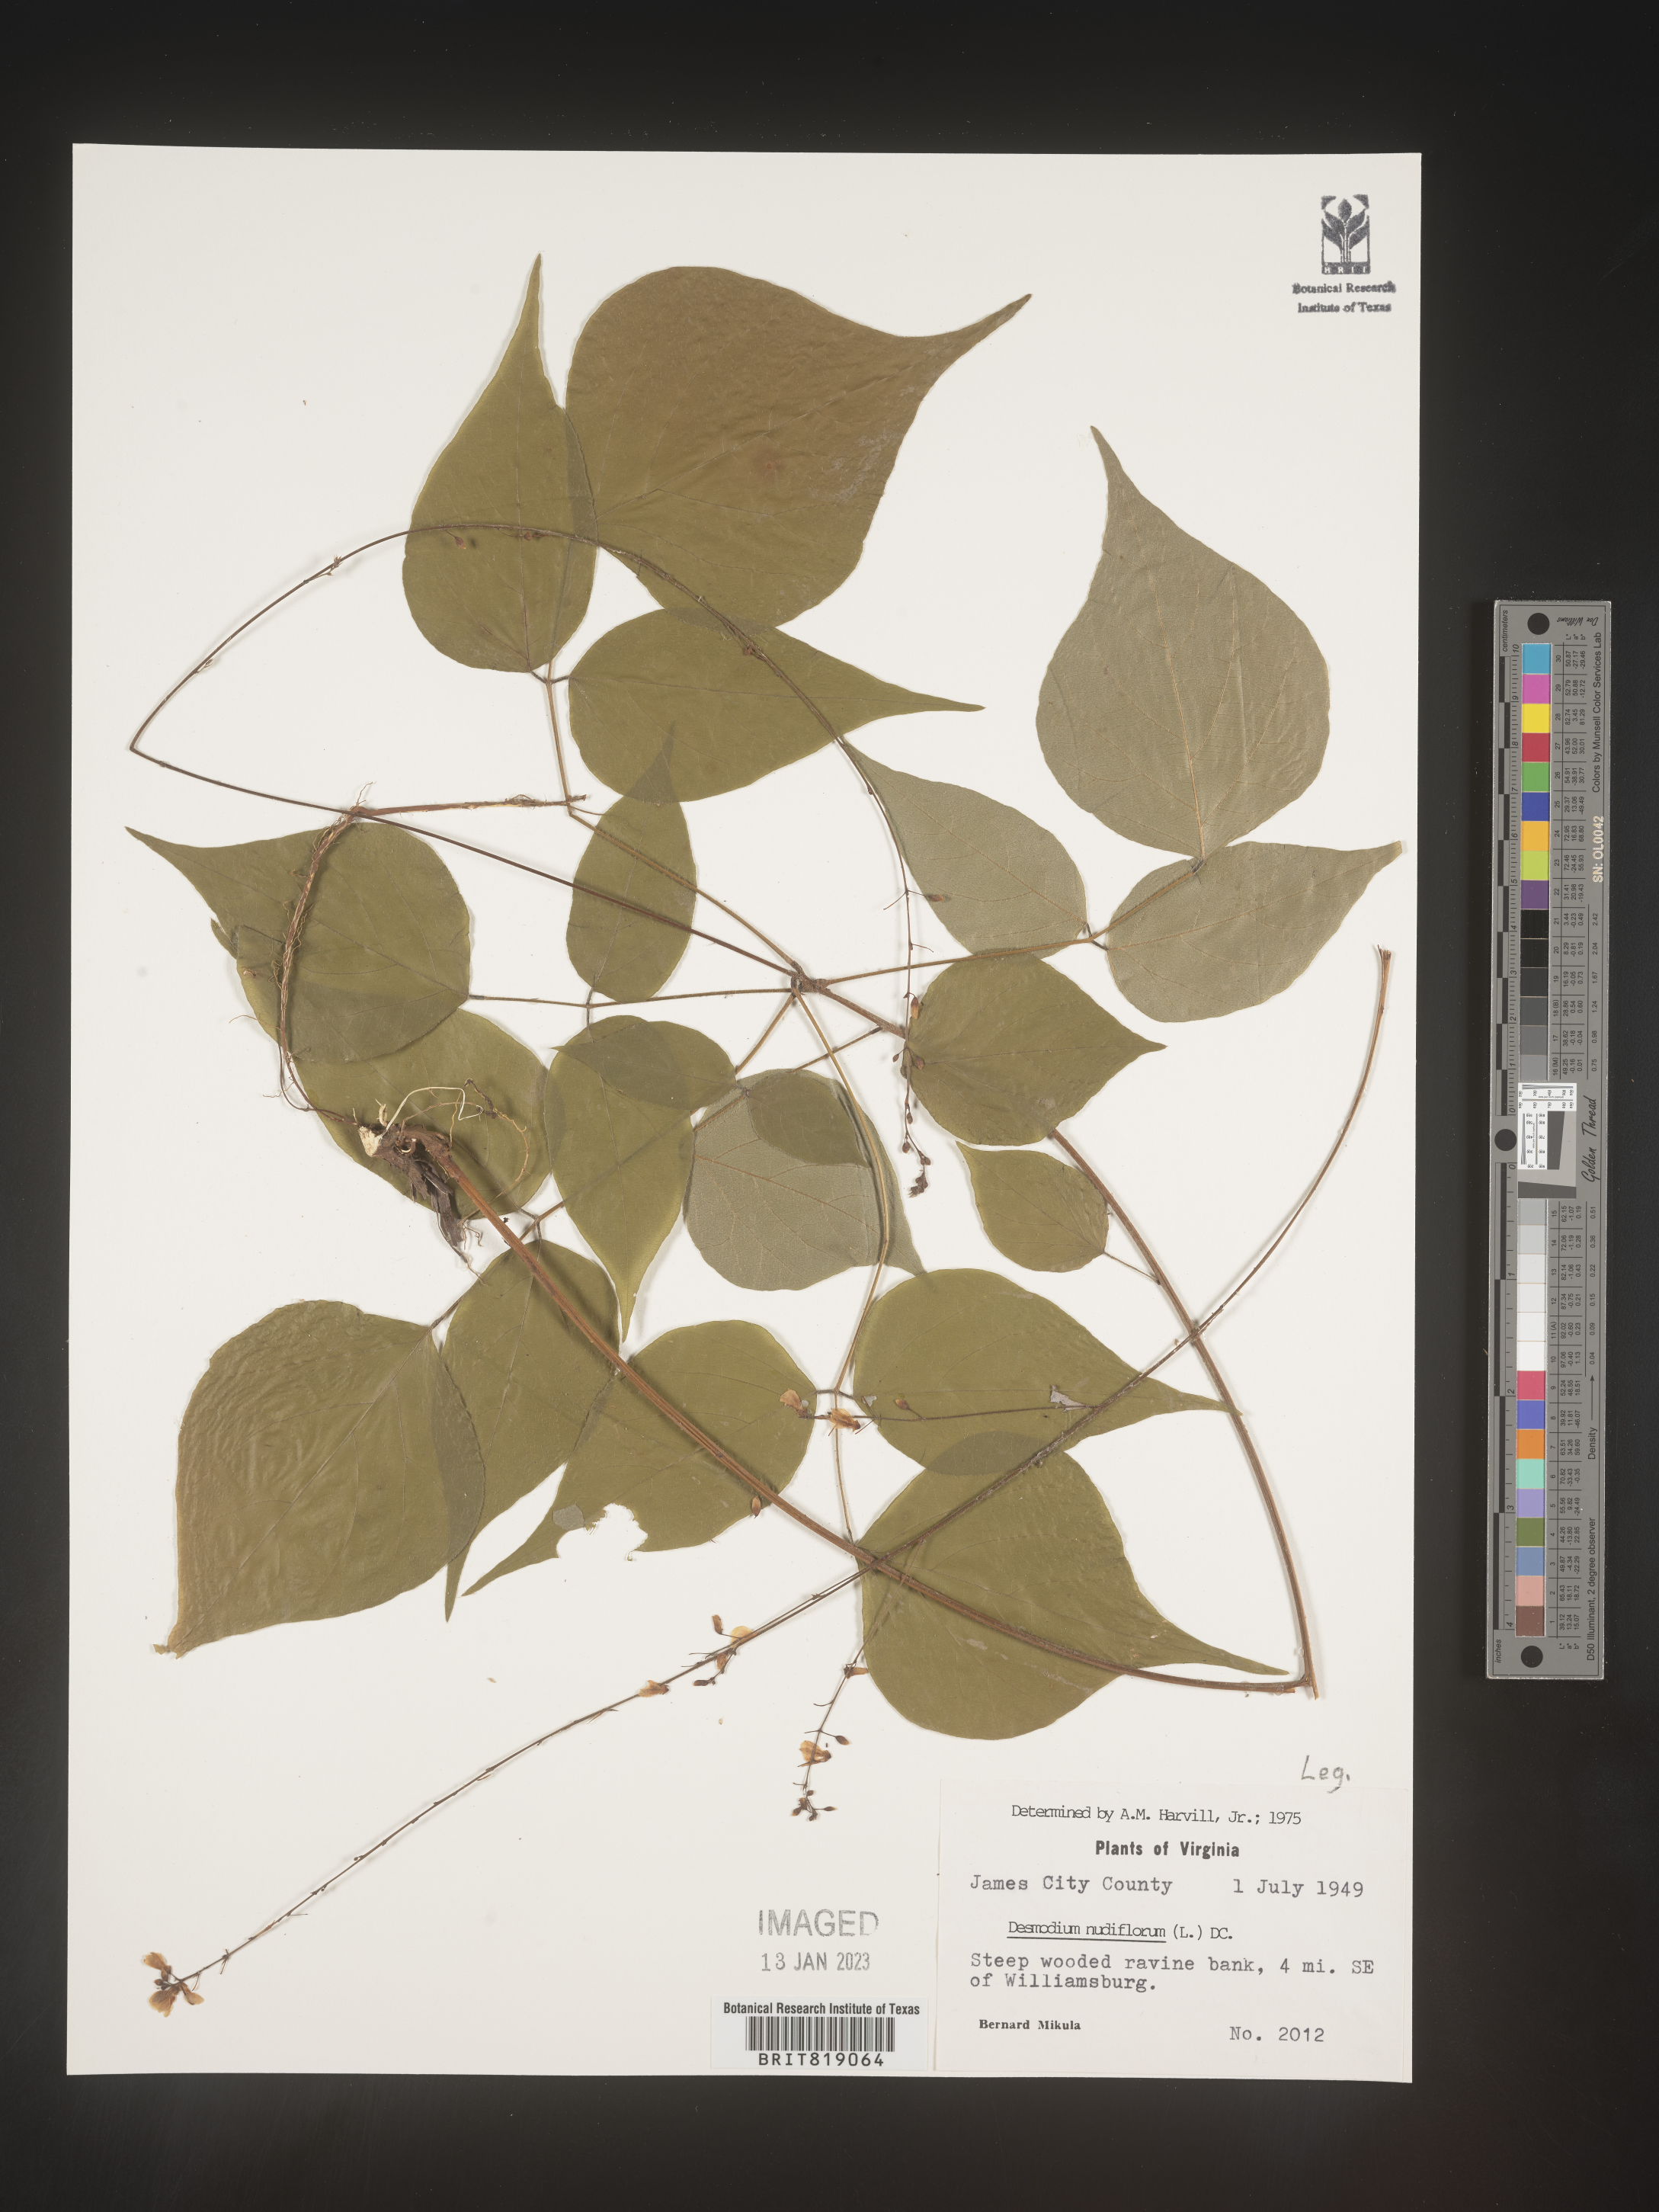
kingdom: Plantae
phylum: Tracheophyta
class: Magnoliopsida
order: Fabales
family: Fabaceae
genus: Hylodesmum
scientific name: Hylodesmum nudiflorum
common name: Bare-stemmed tick-trefoil
